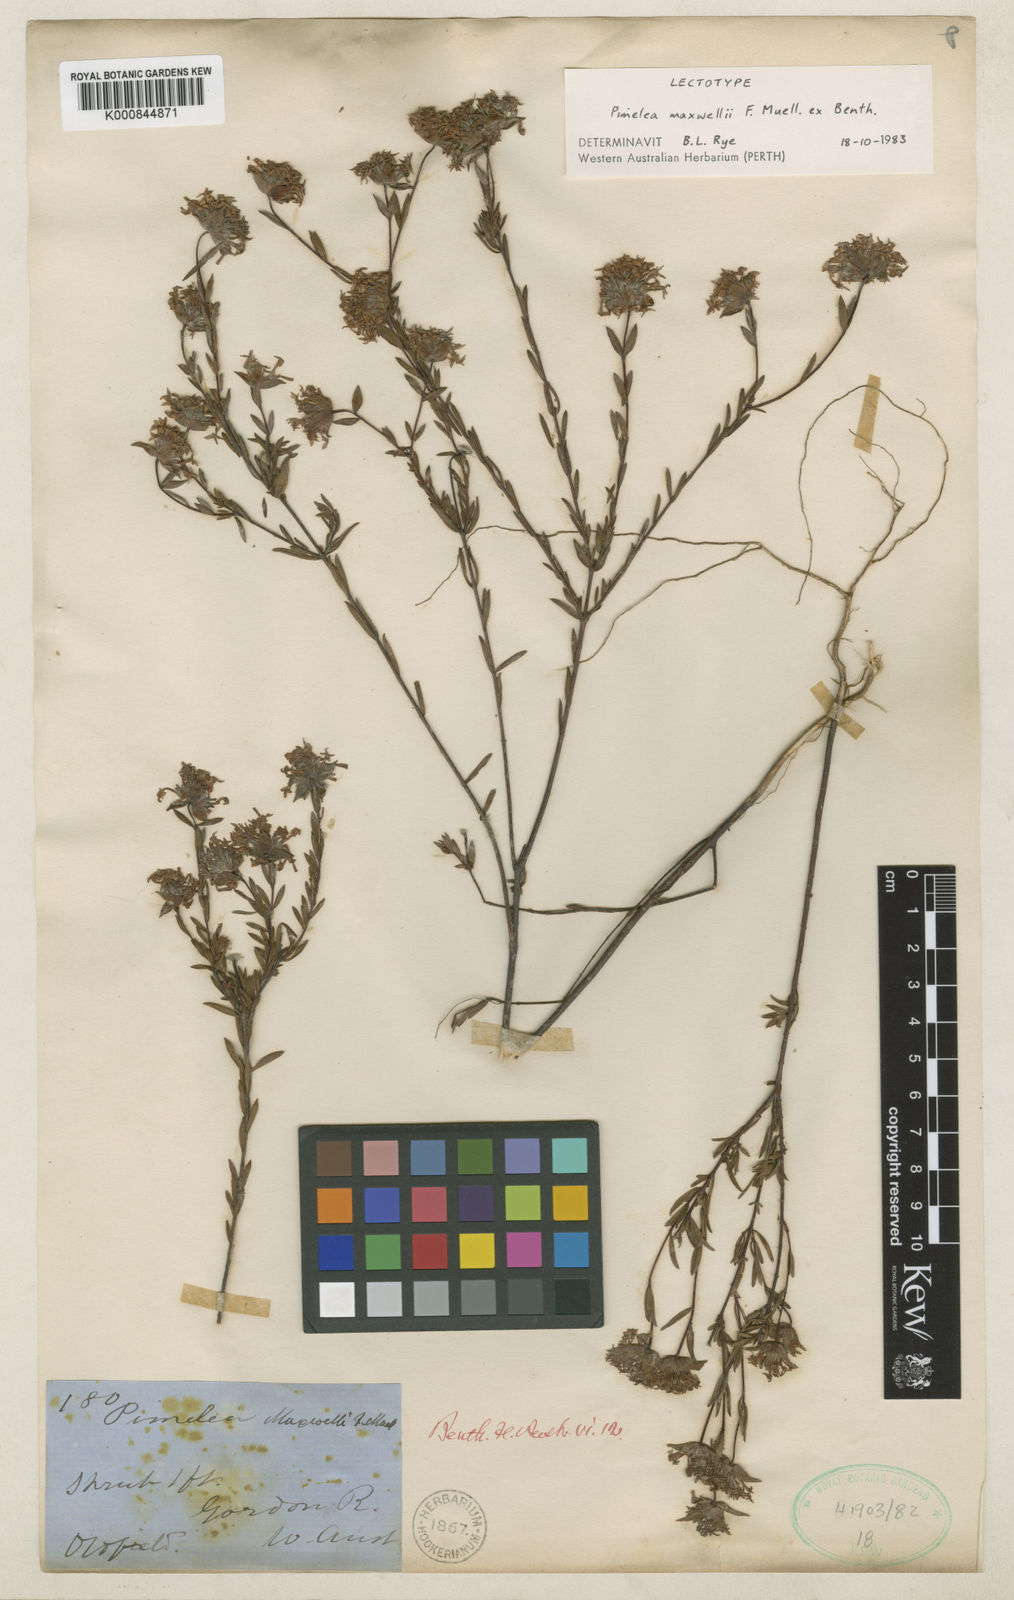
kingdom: Plantae
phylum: Tracheophyta
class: Magnoliopsida
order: Malvales
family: Thymelaeaceae
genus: Pimelea
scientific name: Pimelea brevifolia
